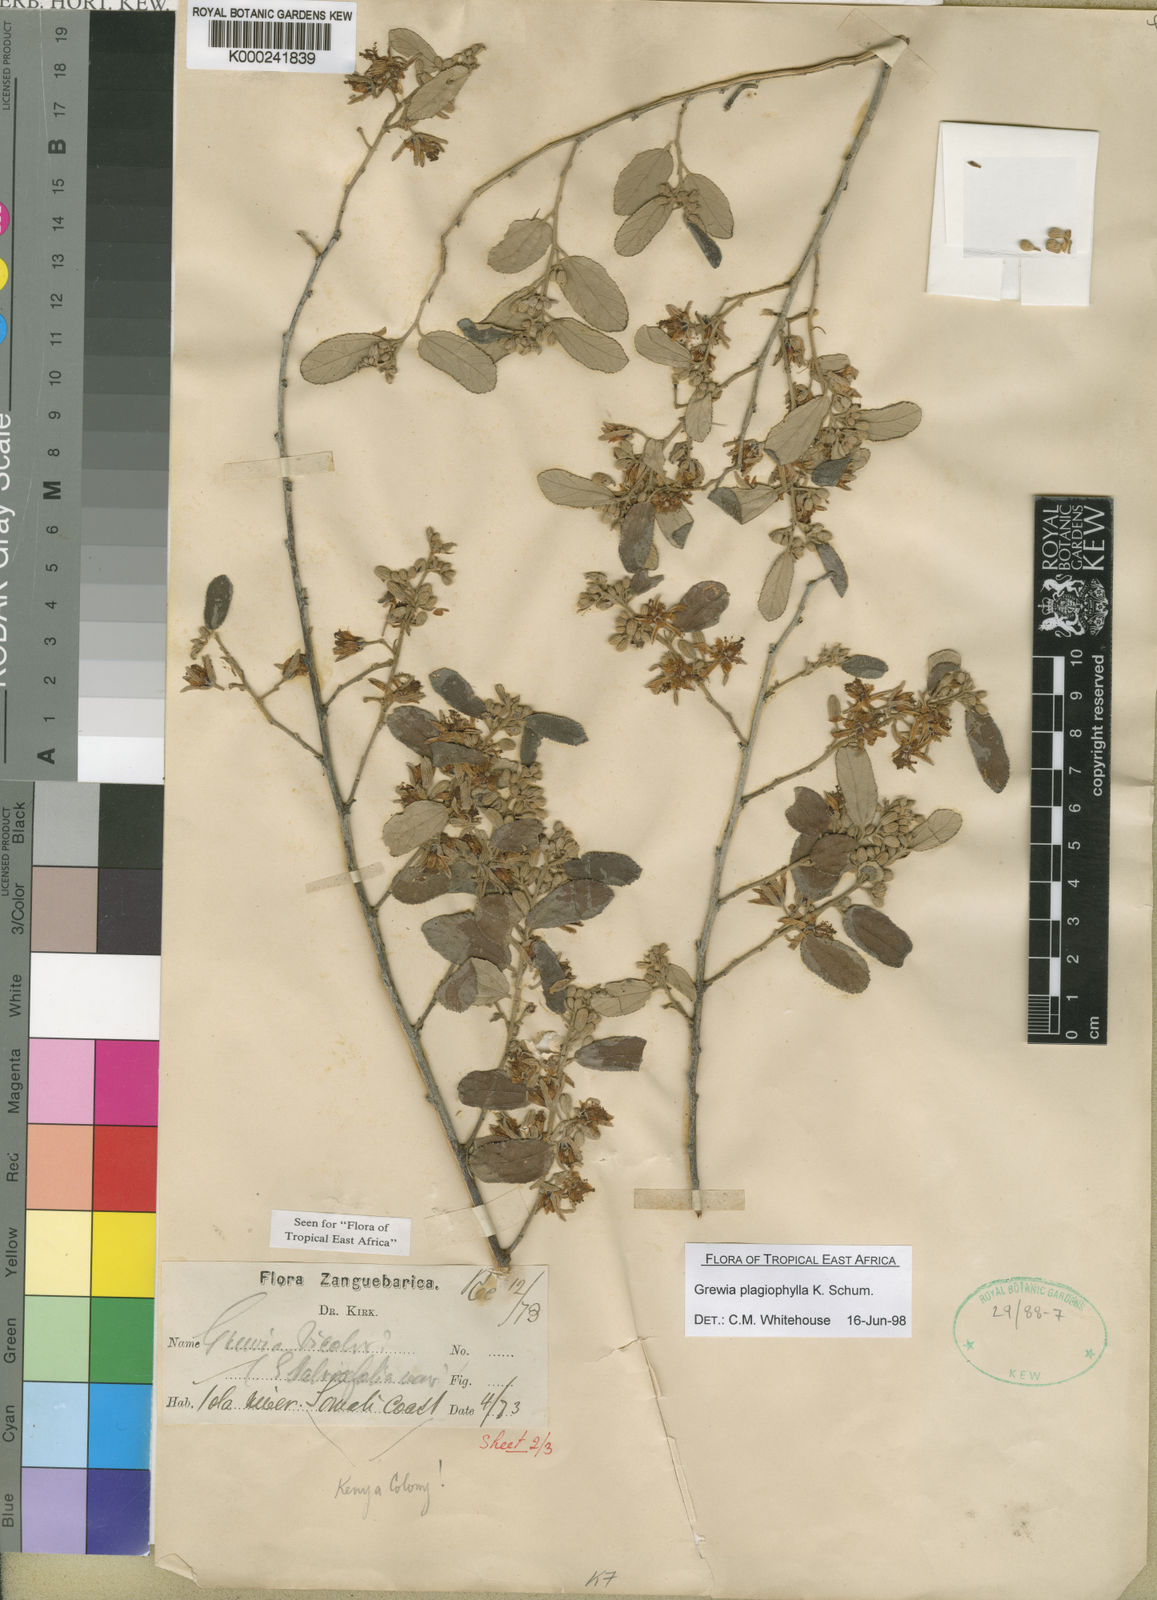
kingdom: Plantae
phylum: Tracheophyta
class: Magnoliopsida
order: Malvales
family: Malvaceae
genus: Grewia
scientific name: Grewia plagiophylla
